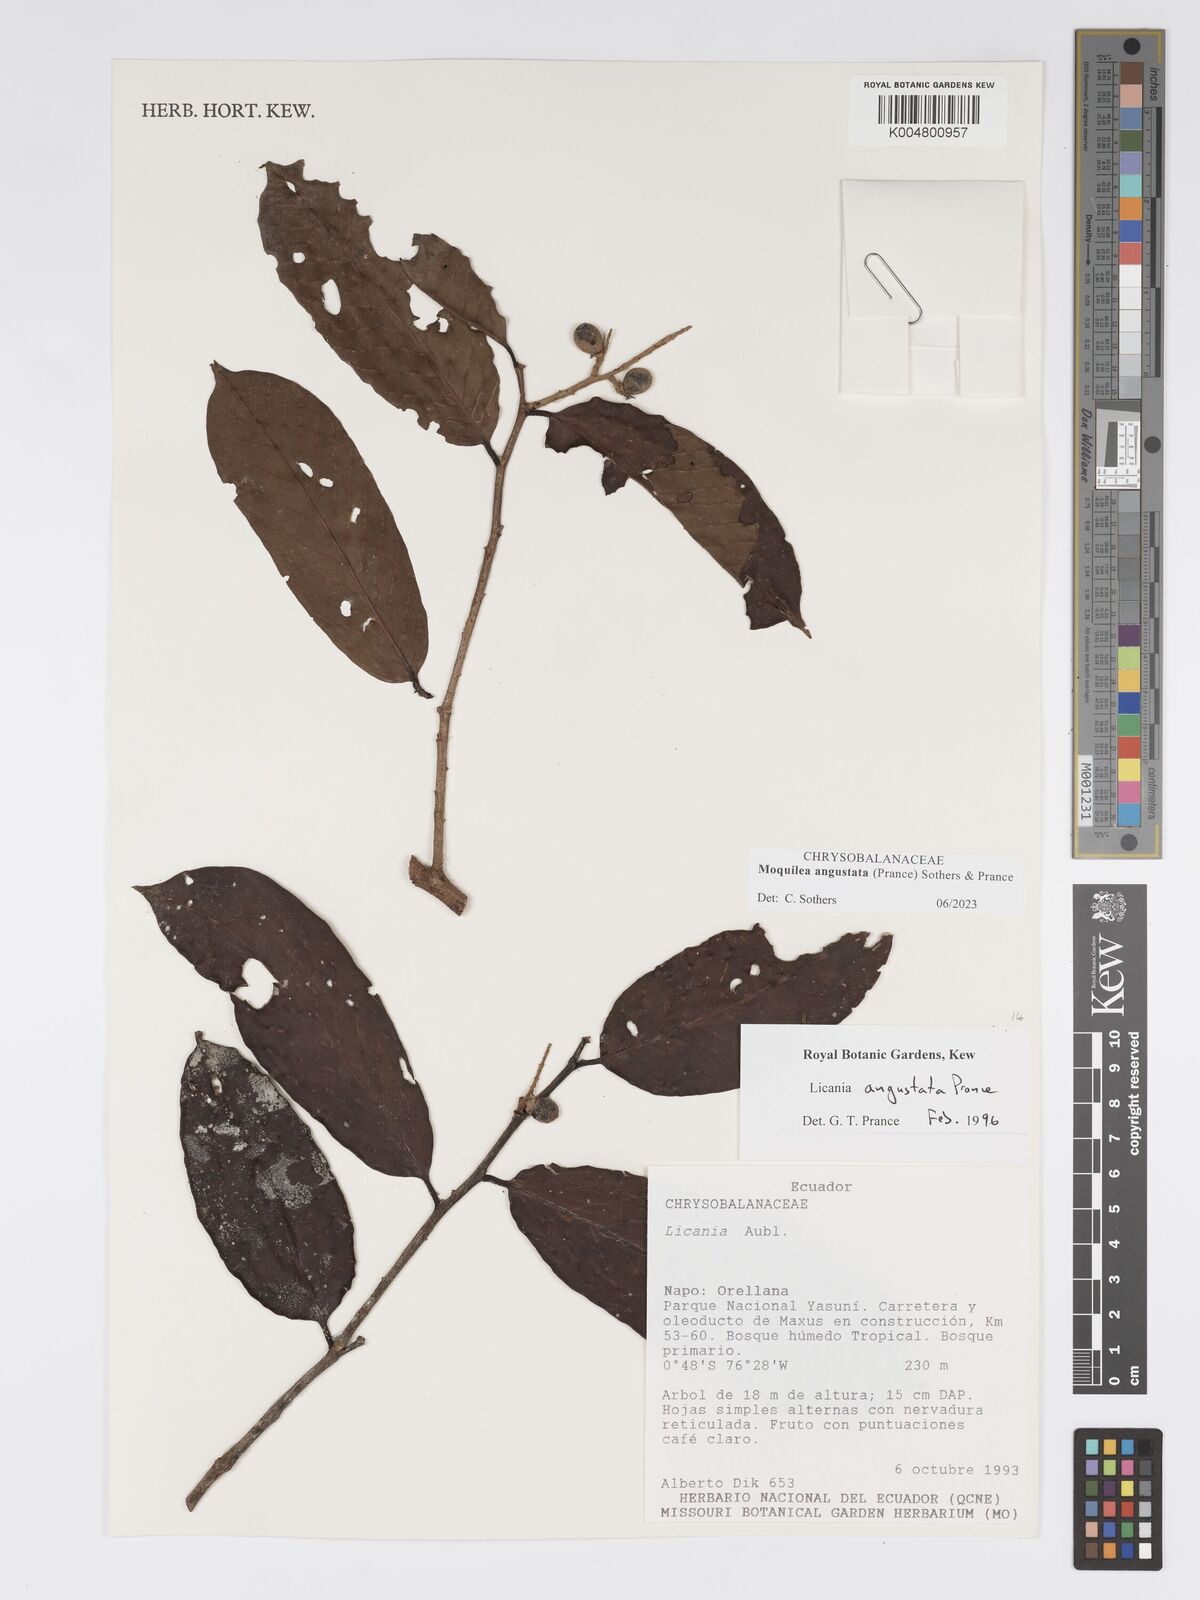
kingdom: Plantae
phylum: Tracheophyta
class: Magnoliopsida
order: Malpighiales
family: Chrysobalanaceae
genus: Moquilea
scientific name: Moquilea angustata
